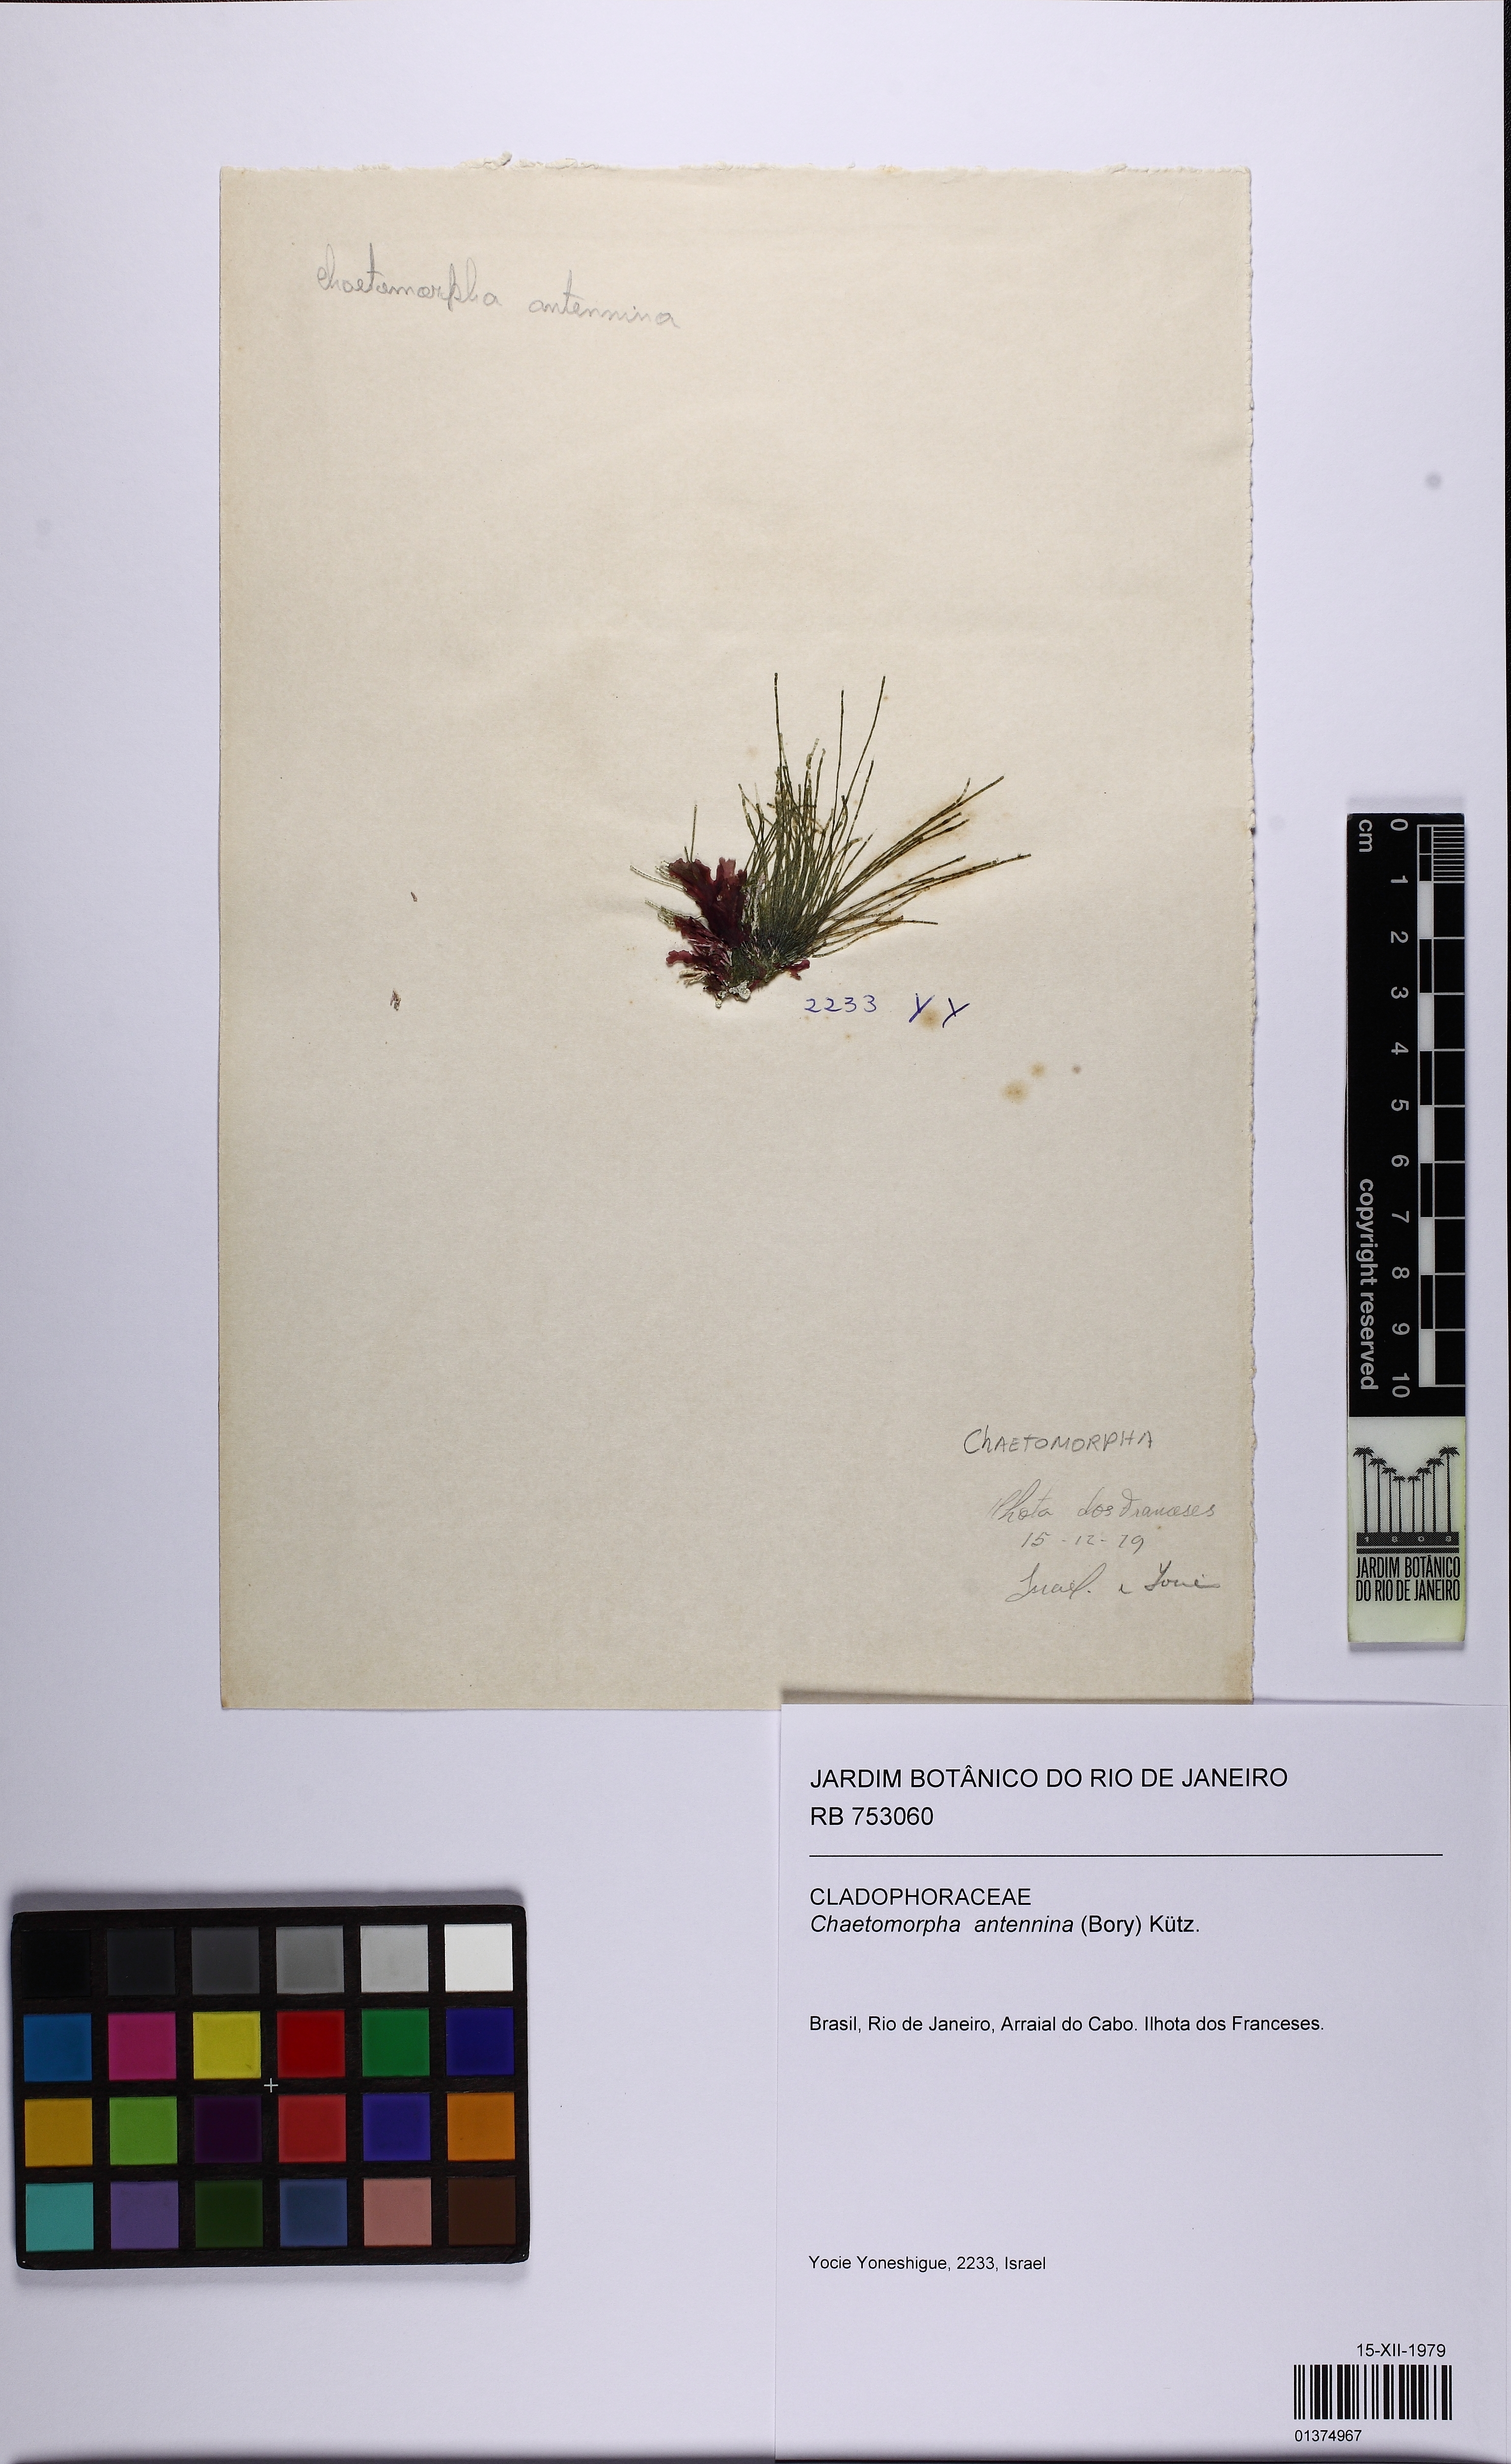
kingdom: Plantae
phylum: Chlorophyta
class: Ulvophyceae
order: Cladophorales
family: Cladophoraceae
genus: Chaetomorpha
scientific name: Chaetomorpha antennina
